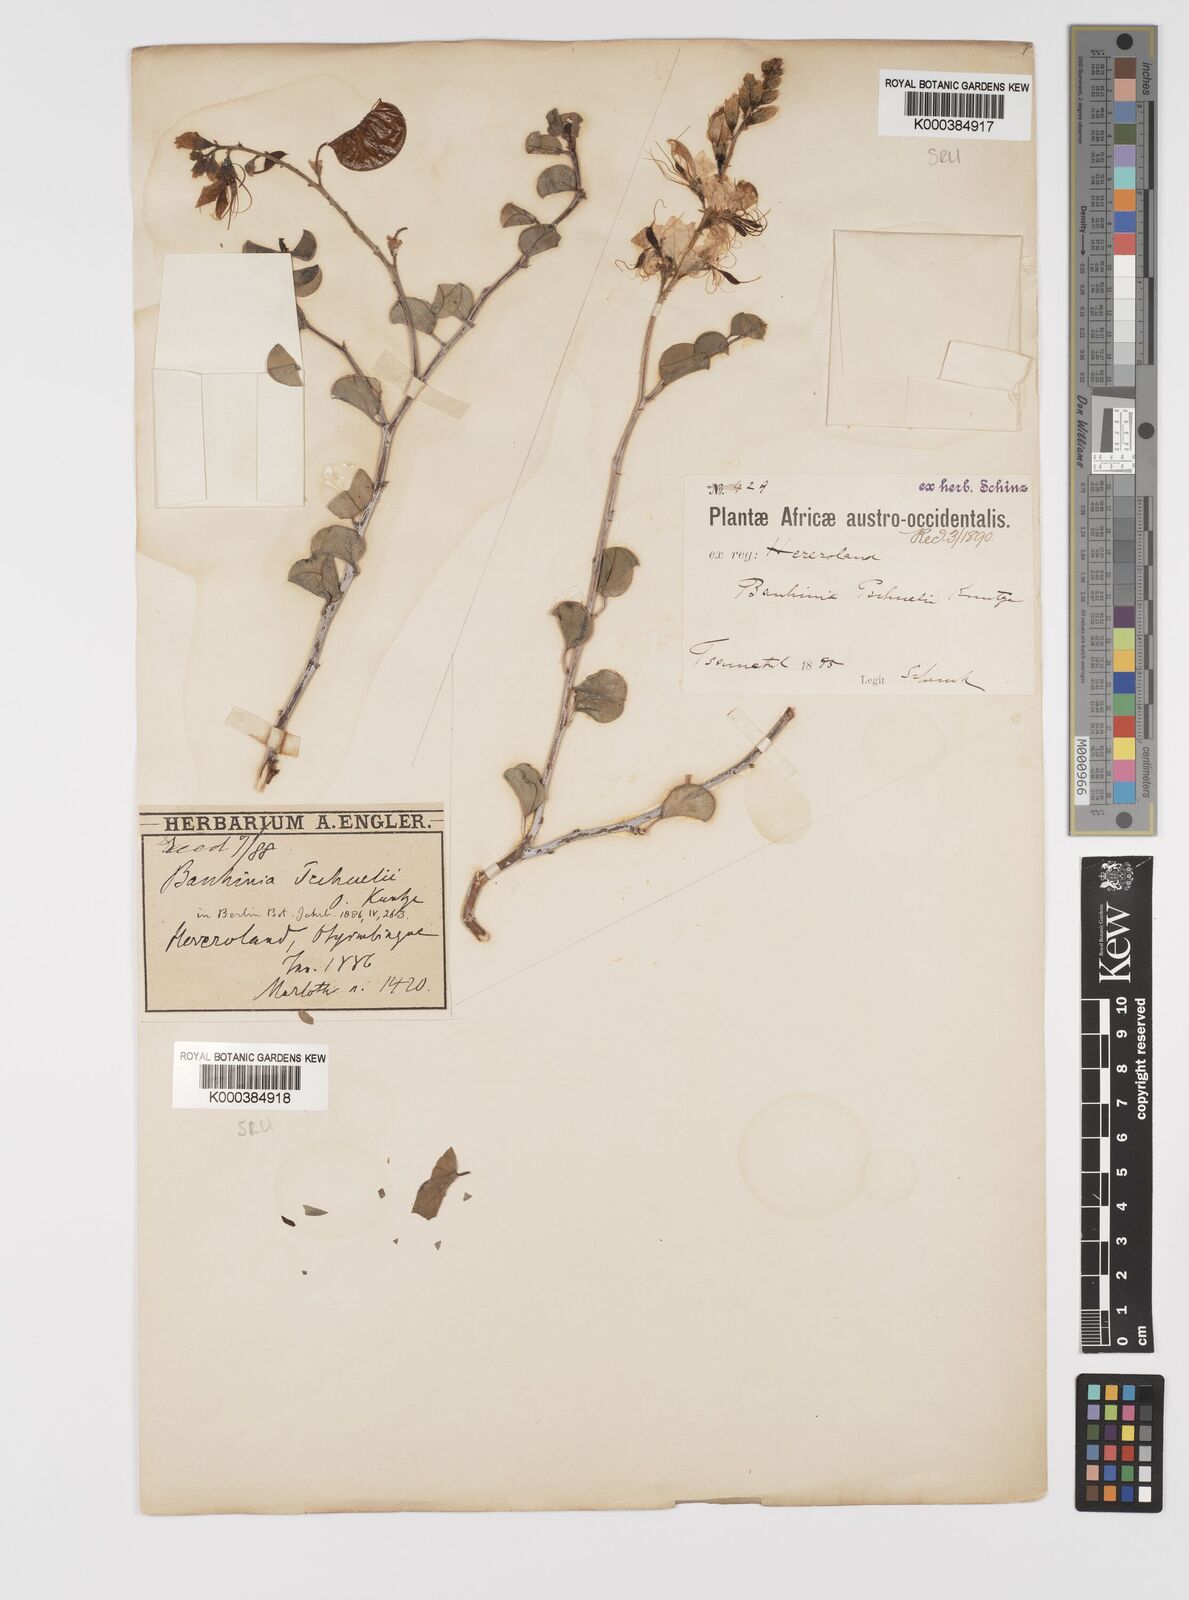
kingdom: Plantae
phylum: Tracheophyta
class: Magnoliopsida
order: Fabales
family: Fabaceae
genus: Bauhinia
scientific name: Bauhinia
